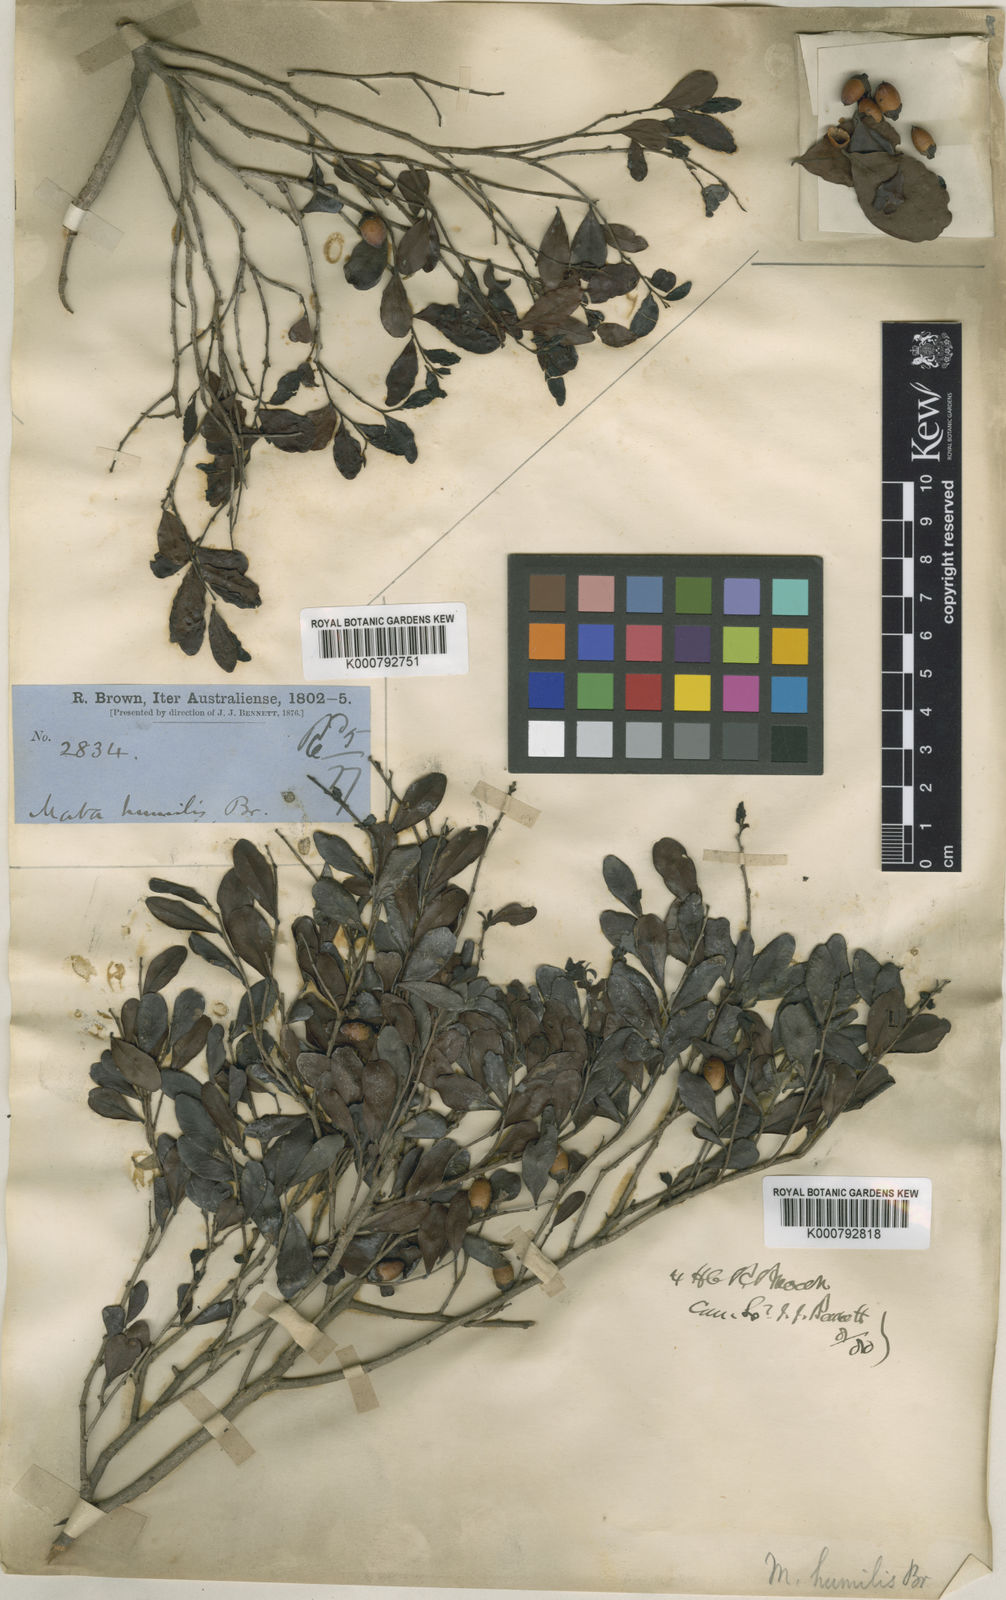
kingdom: Plantae
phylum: Tracheophyta
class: Magnoliopsida
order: Ericales
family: Ebenaceae
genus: Diospyros
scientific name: Diospyros humilis
